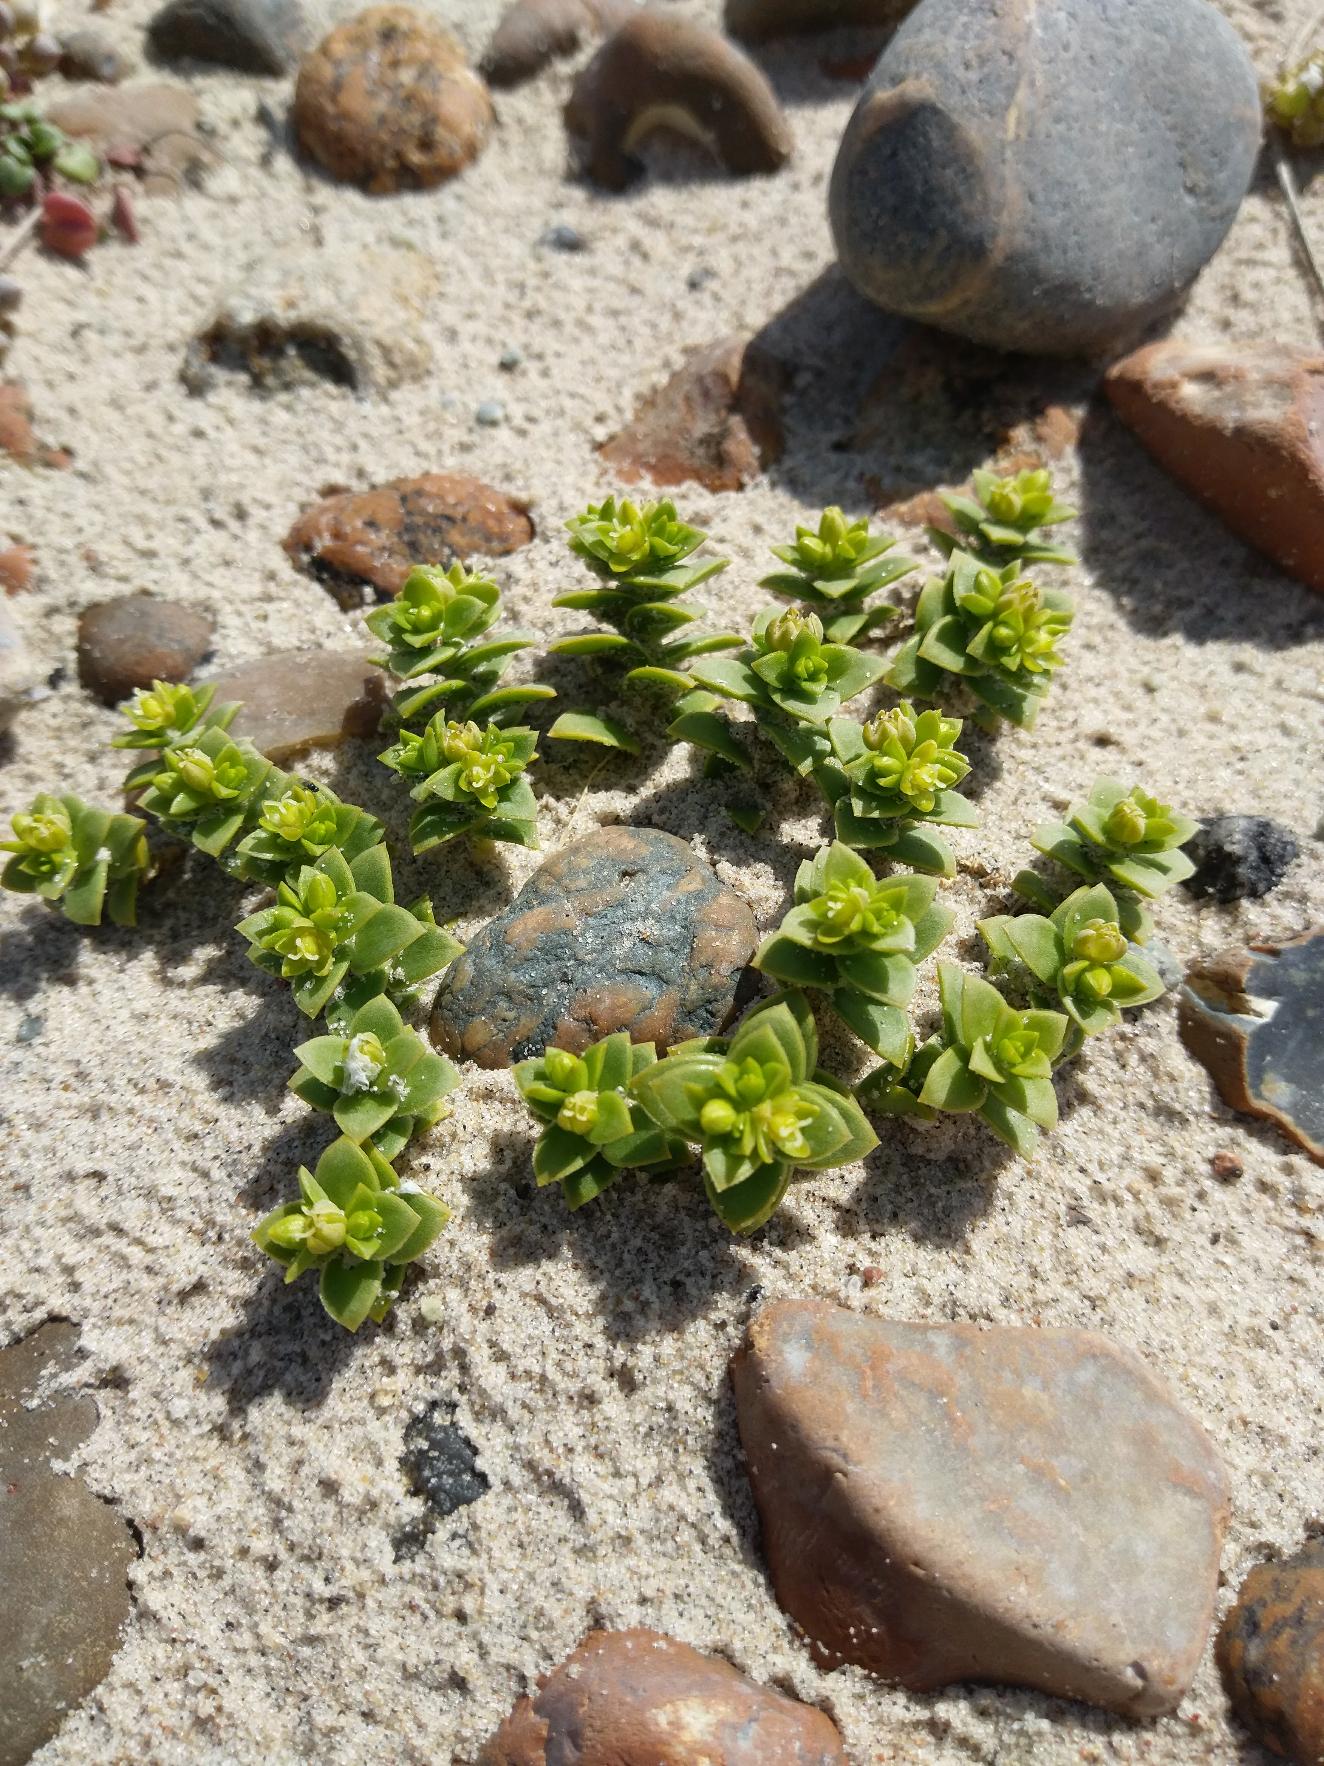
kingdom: Plantae
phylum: Tracheophyta
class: Magnoliopsida
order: Caryophyllales
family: Caryophyllaceae
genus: Honckenya
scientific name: Honckenya peploides
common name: Strandarve
